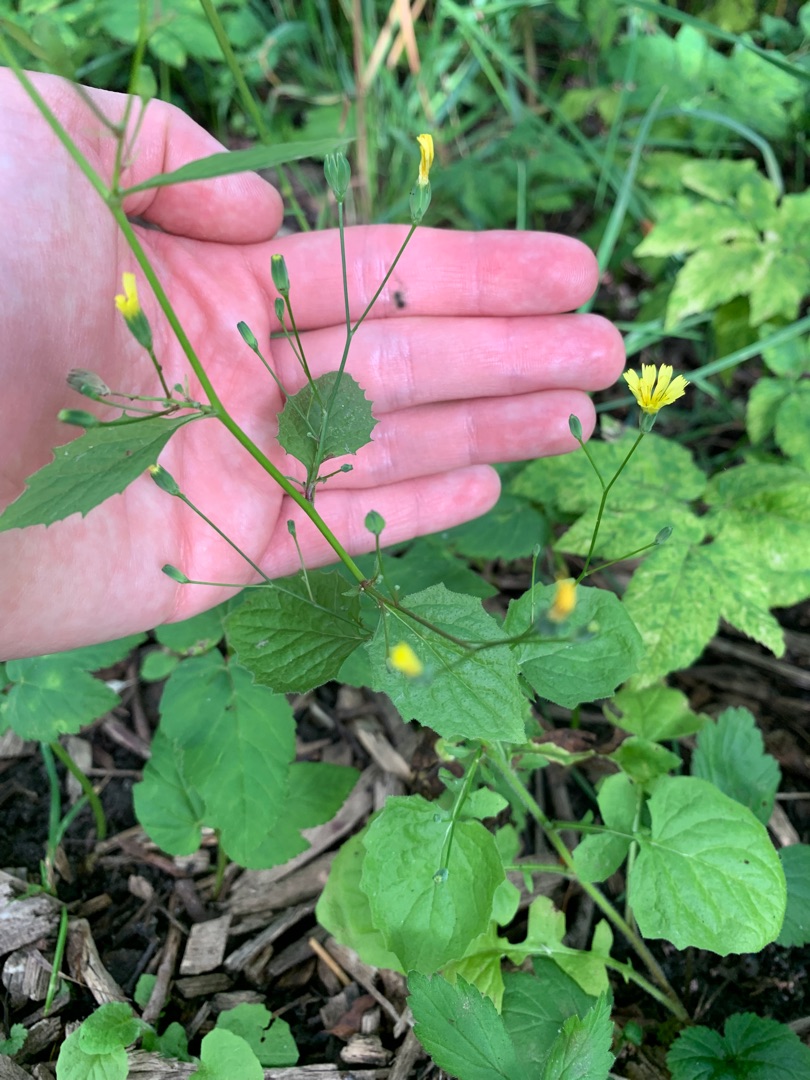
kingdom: Plantae
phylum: Tracheophyta
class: Magnoliopsida
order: Asterales
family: Asteraceae
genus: Lapsana
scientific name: Lapsana communis
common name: Haremad
